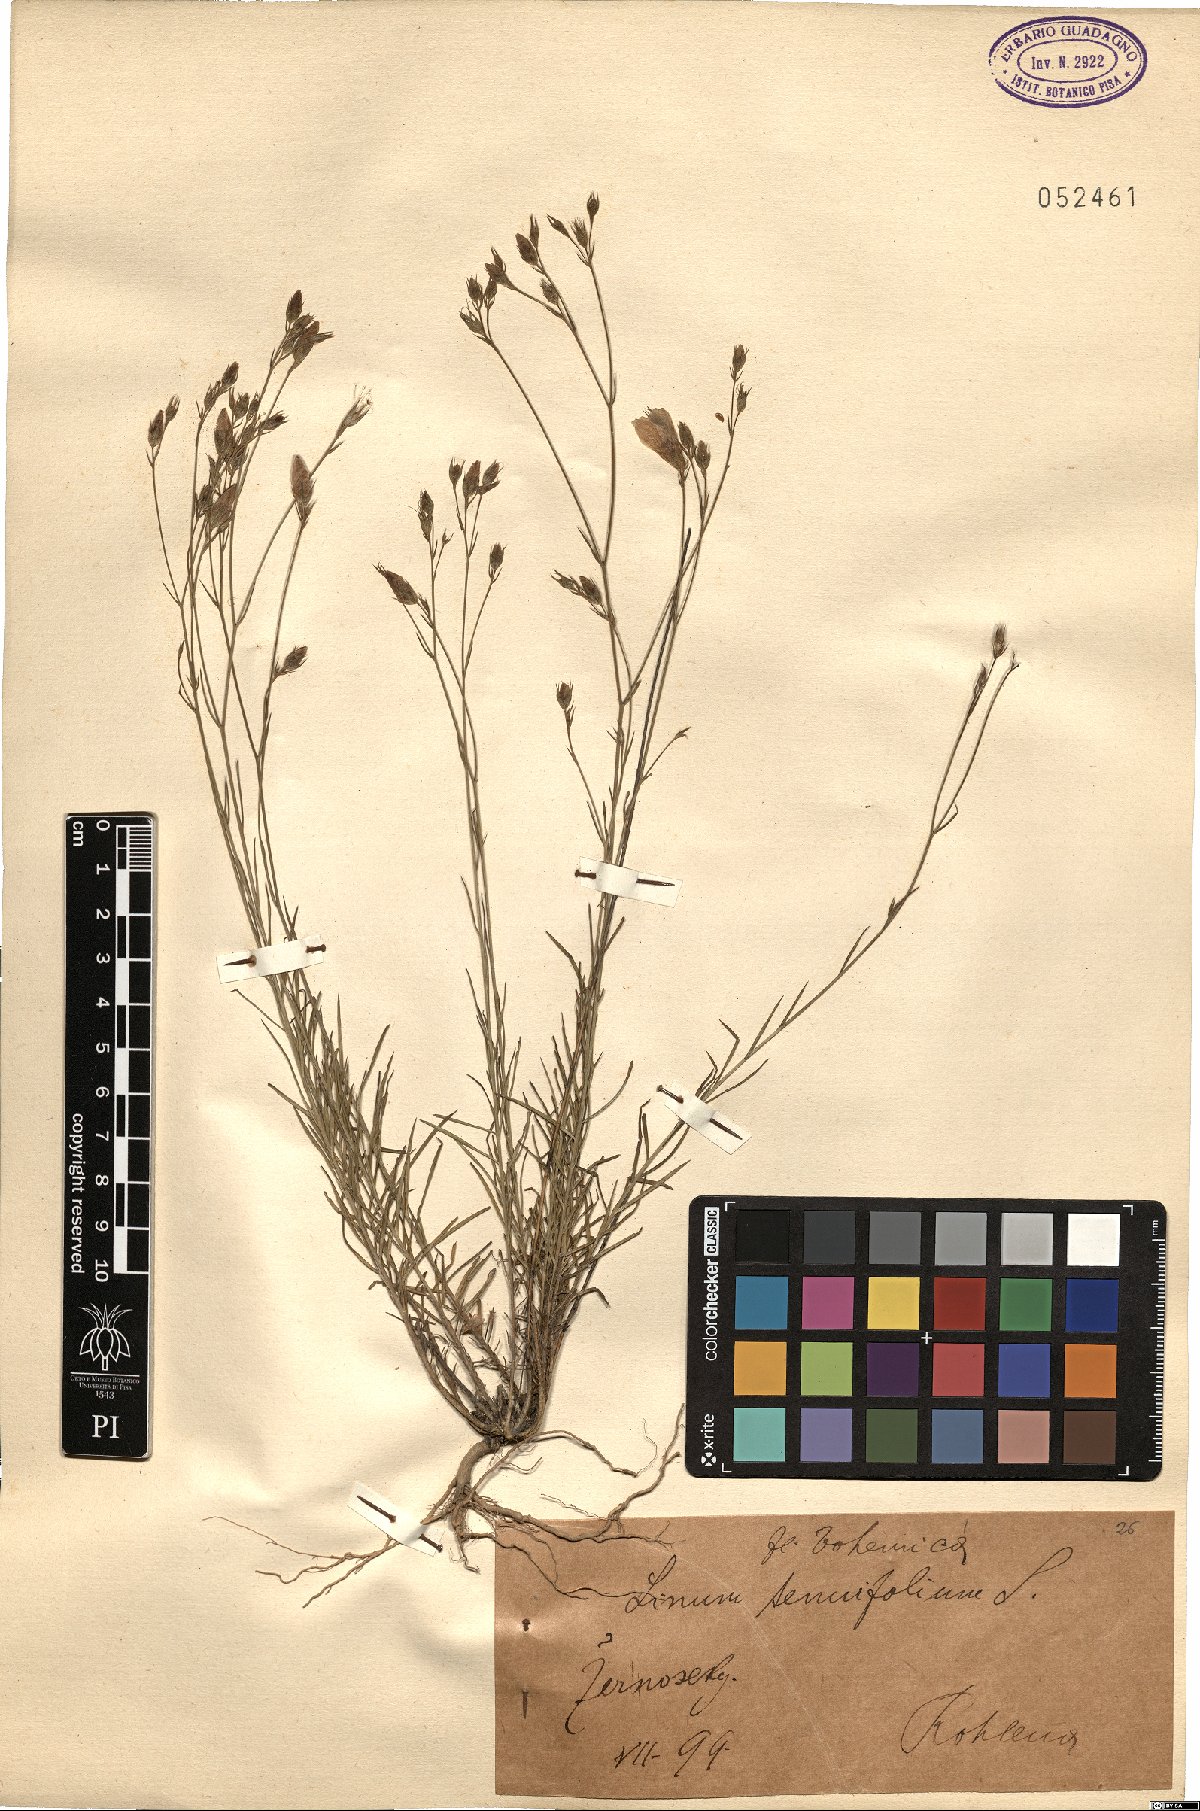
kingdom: Plantae
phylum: Tracheophyta
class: Magnoliopsida
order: Malpighiales
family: Linaceae
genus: Linum
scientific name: Linum tenuifolium
